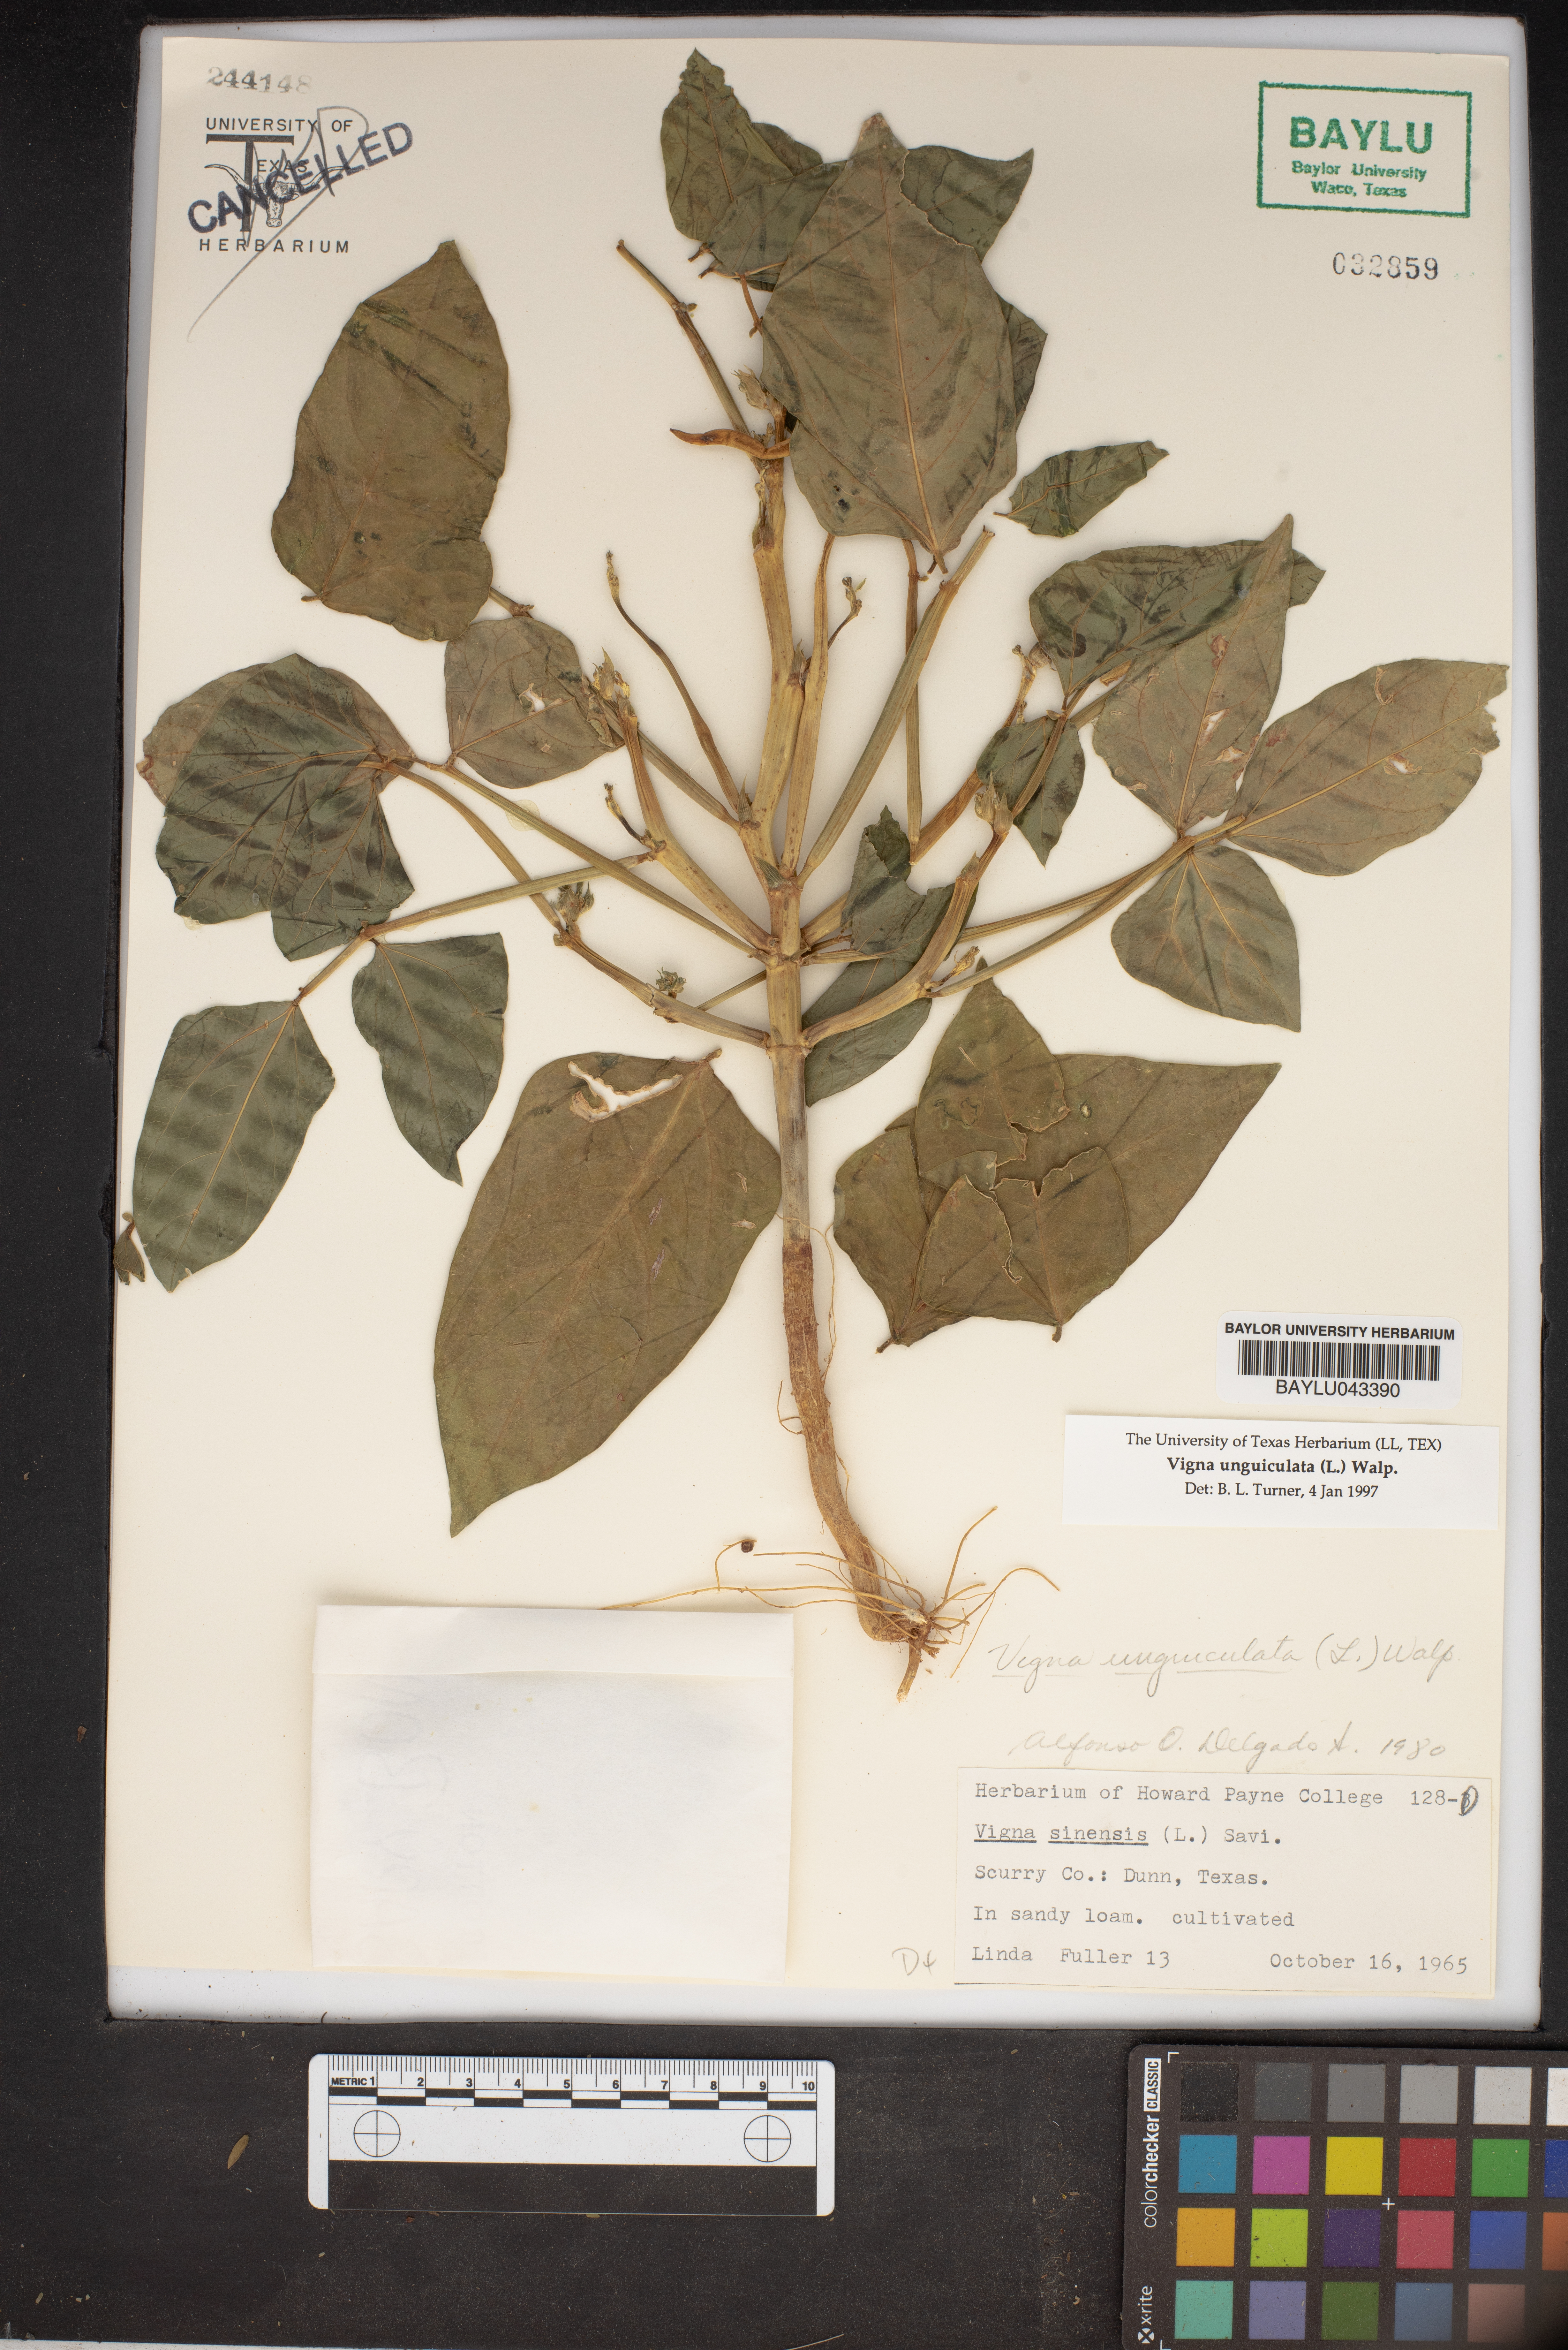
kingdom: Plantae
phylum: Tracheophyta
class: Magnoliopsida
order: Fabales
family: Fabaceae
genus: Vigna
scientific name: Vigna unguiculata
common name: Cowpea
